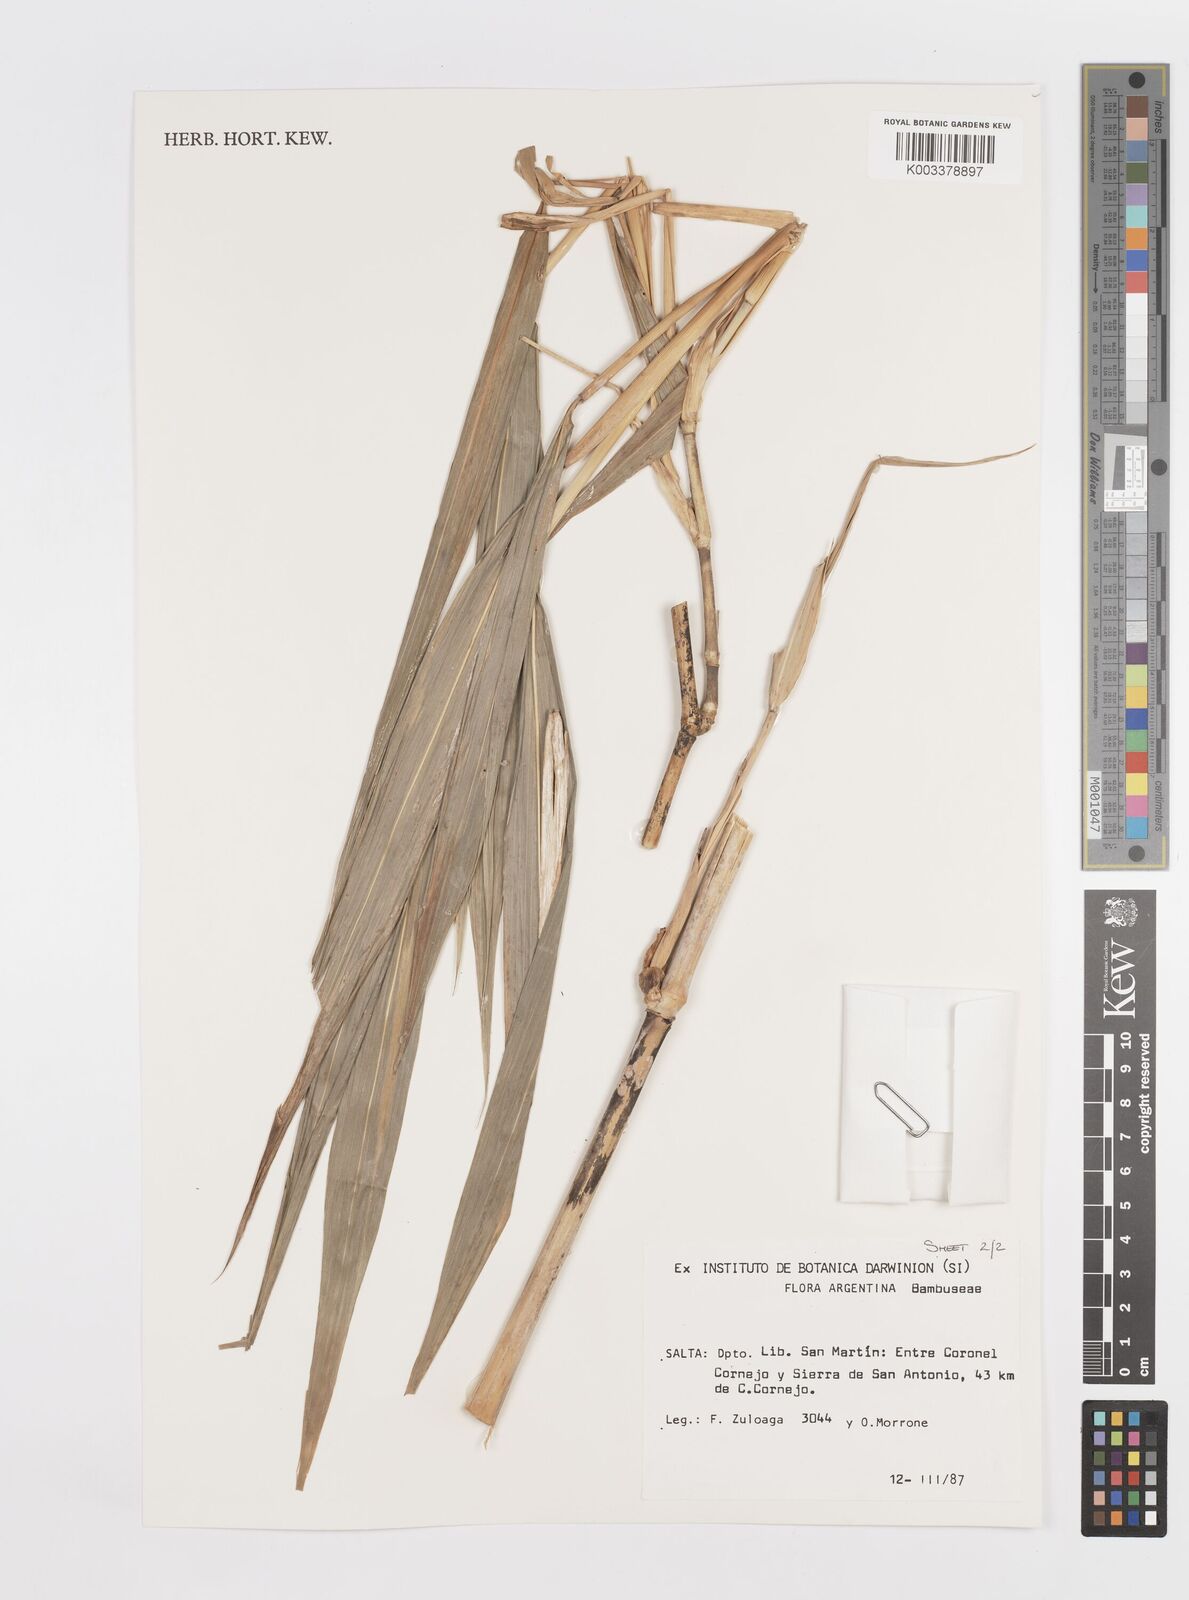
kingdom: Plantae
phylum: Tracheophyta
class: Liliopsida
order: Poales
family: Poaceae
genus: Lasiacis
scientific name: Lasiacis maculata
